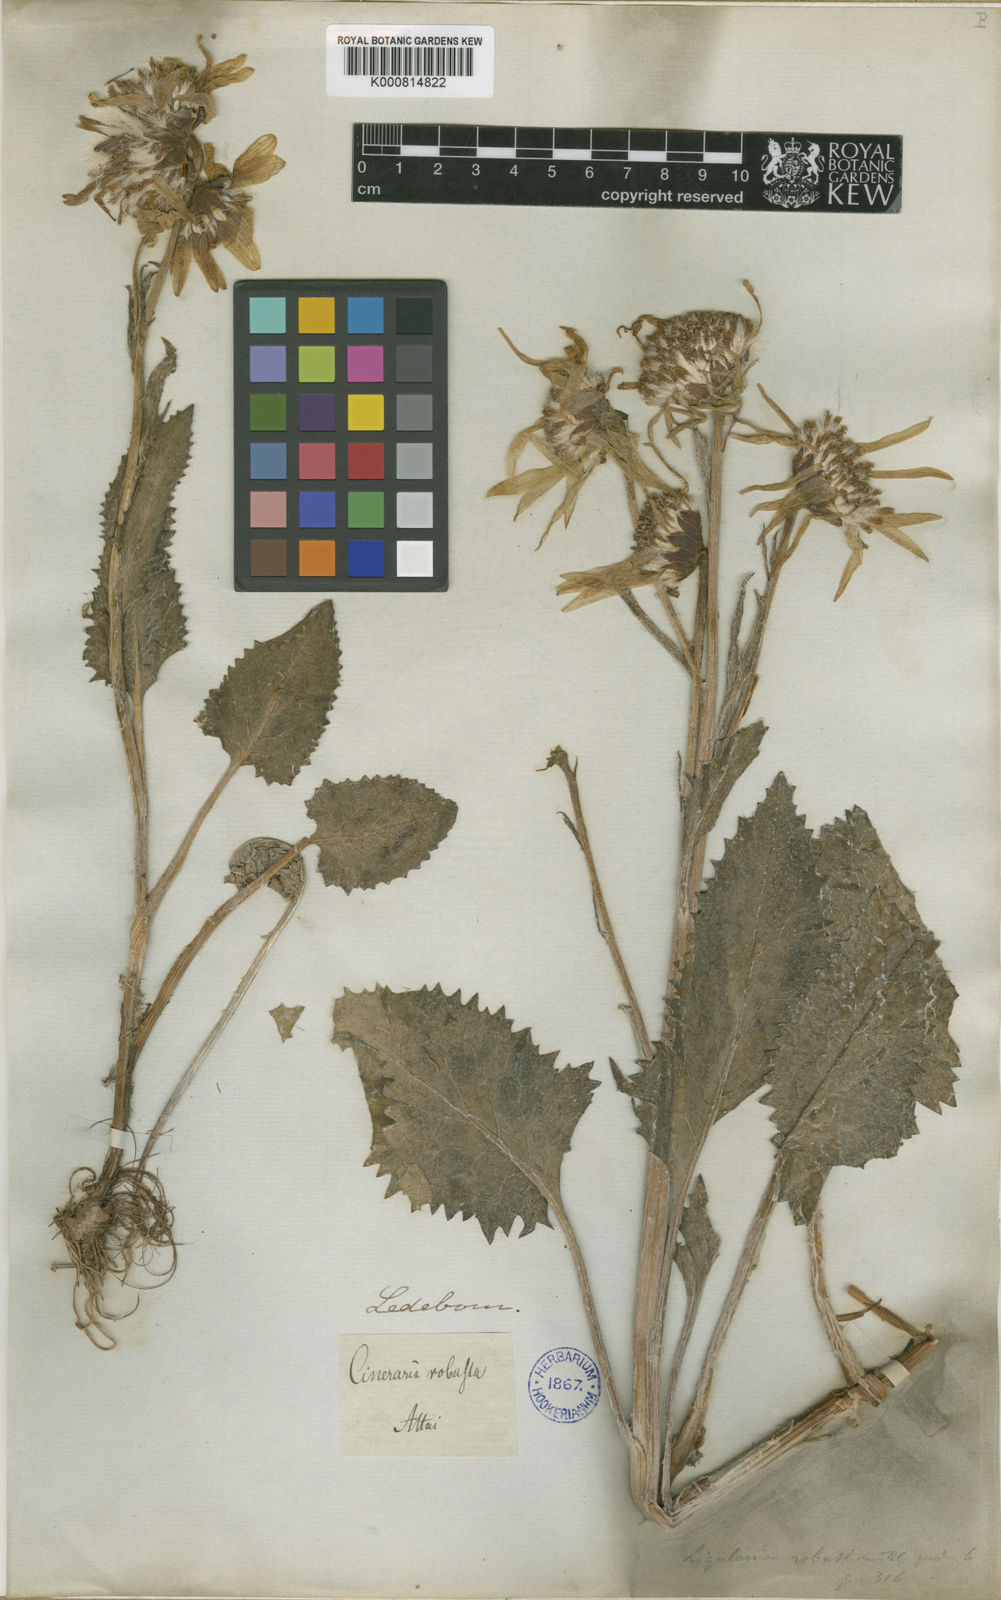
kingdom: Plantae
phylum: Tracheophyta
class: Magnoliopsida
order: Asterales
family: Asteraceae
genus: Vickifunkia
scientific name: Vickifunkia robusta
